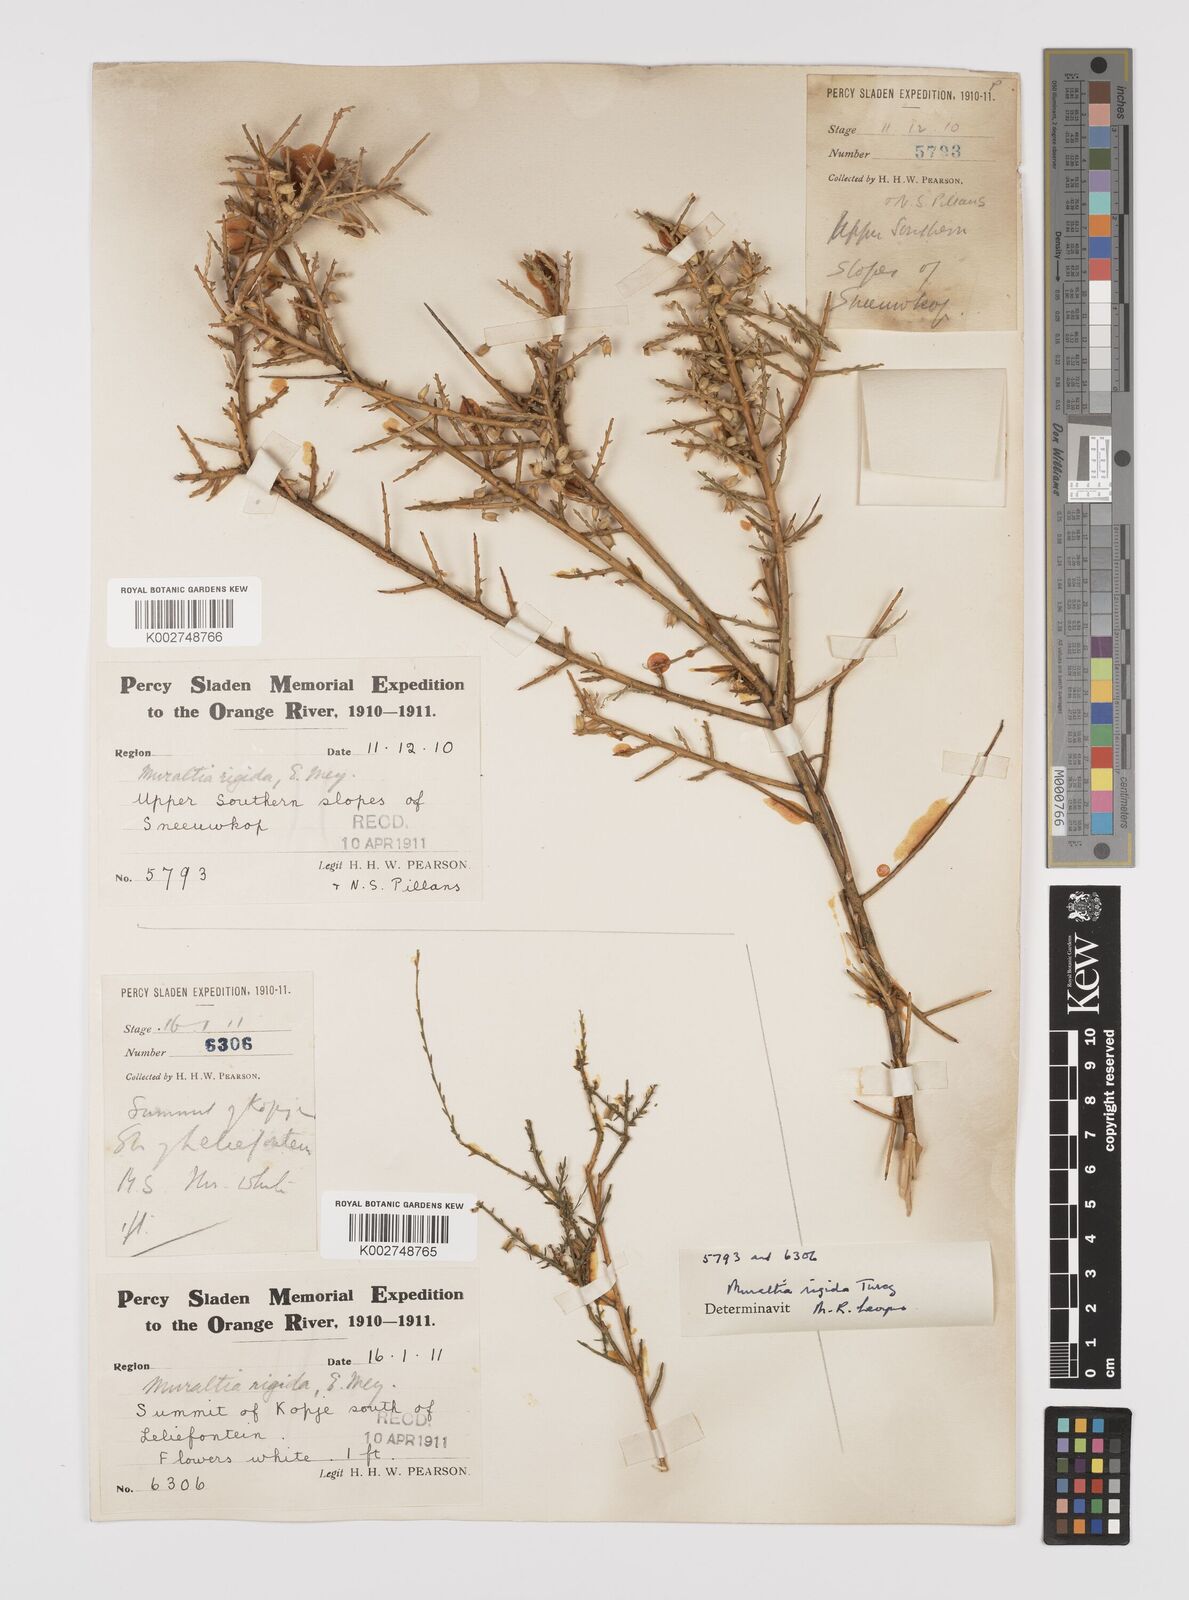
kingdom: Plantae
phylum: Tracheophyta
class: Magnoliopsida
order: Fabales
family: Polygalaceae
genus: Muraltia
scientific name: Muraltia rigida
